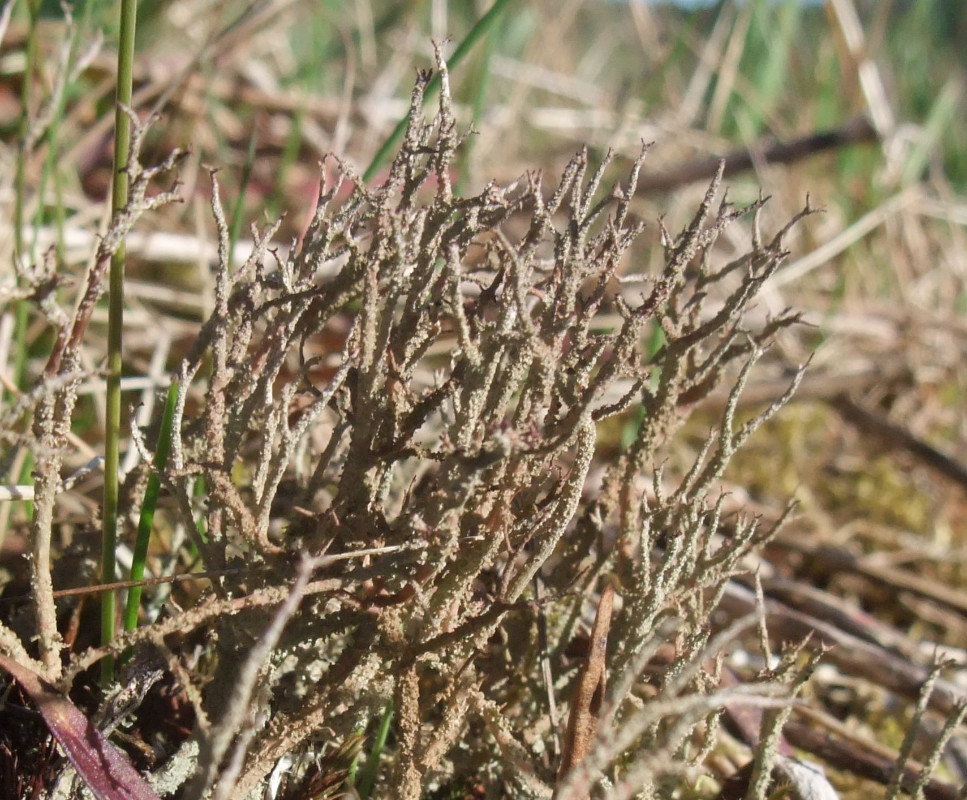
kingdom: Fungi
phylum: Ascomycota
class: Lecanoromycetes
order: Lecanorales
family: Cladoniaceae
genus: Cladonia
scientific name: Cladonia scabriuscula
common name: ru bægerlav
